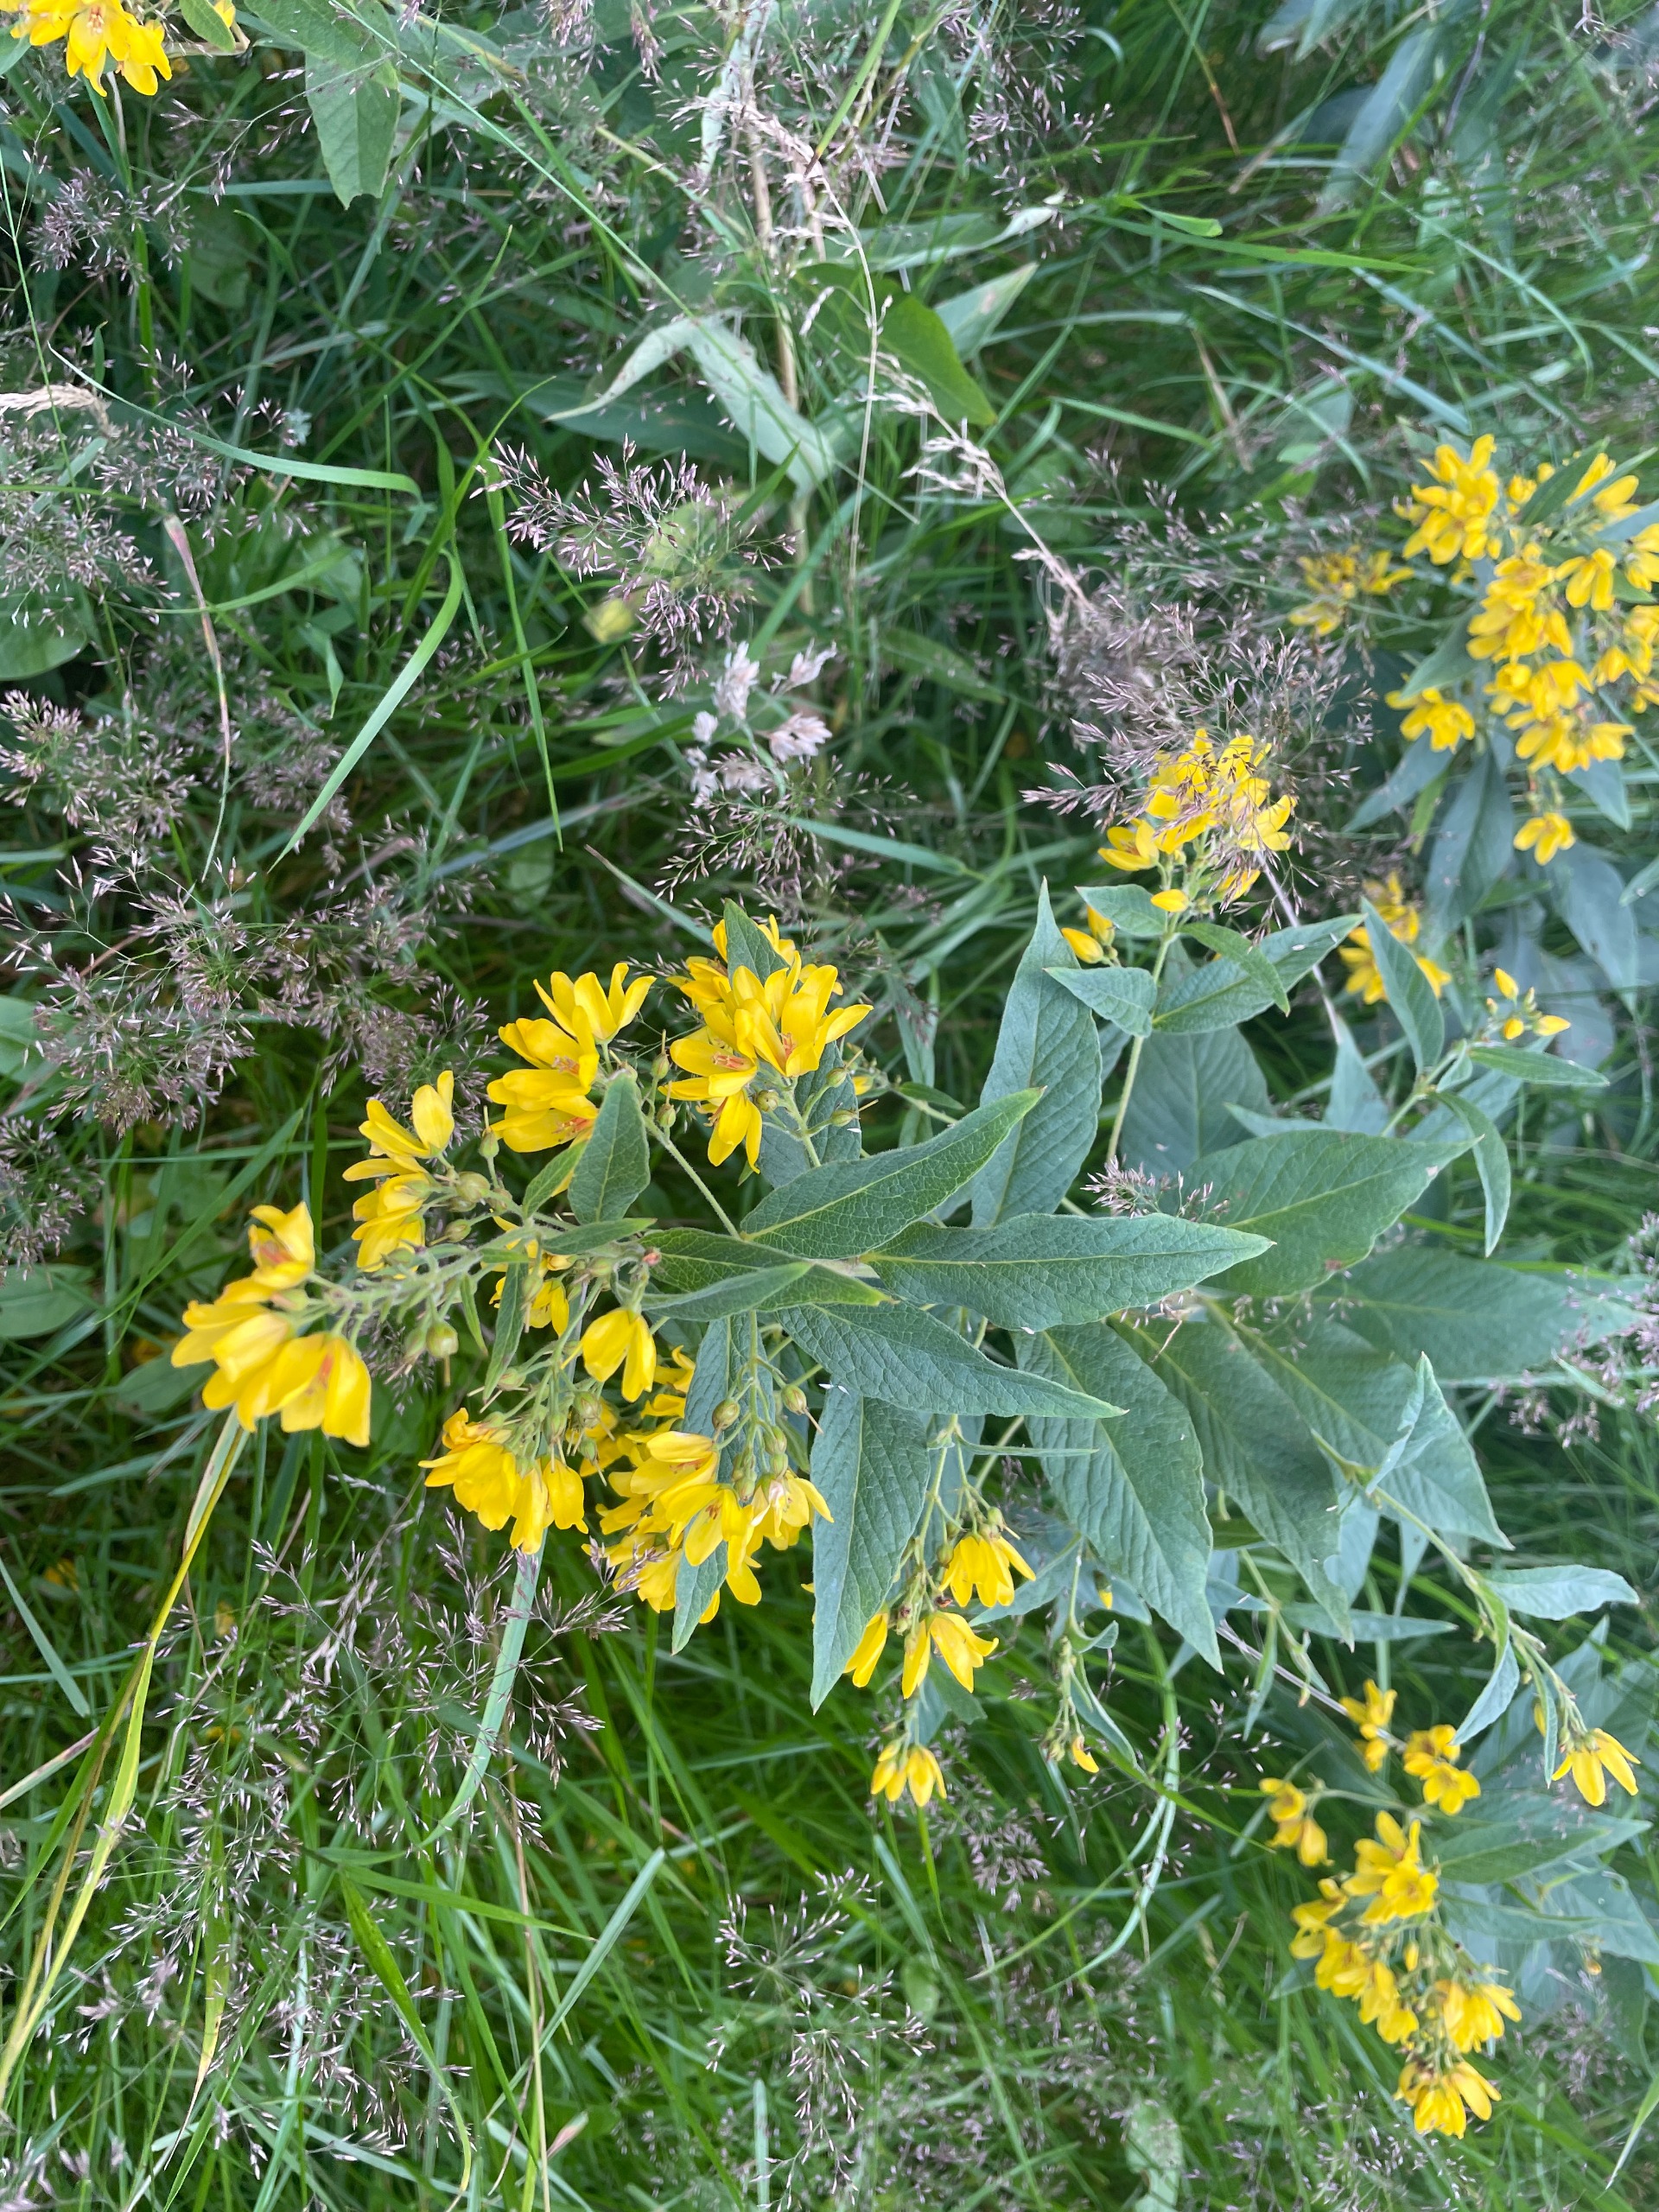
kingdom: Plantae
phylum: Tracheophyta
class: Magnoliopsida
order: Ericales
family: Primulaceae
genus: Lysimachia
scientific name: Lysimachia vulgaris
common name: Almindelig fredløs
